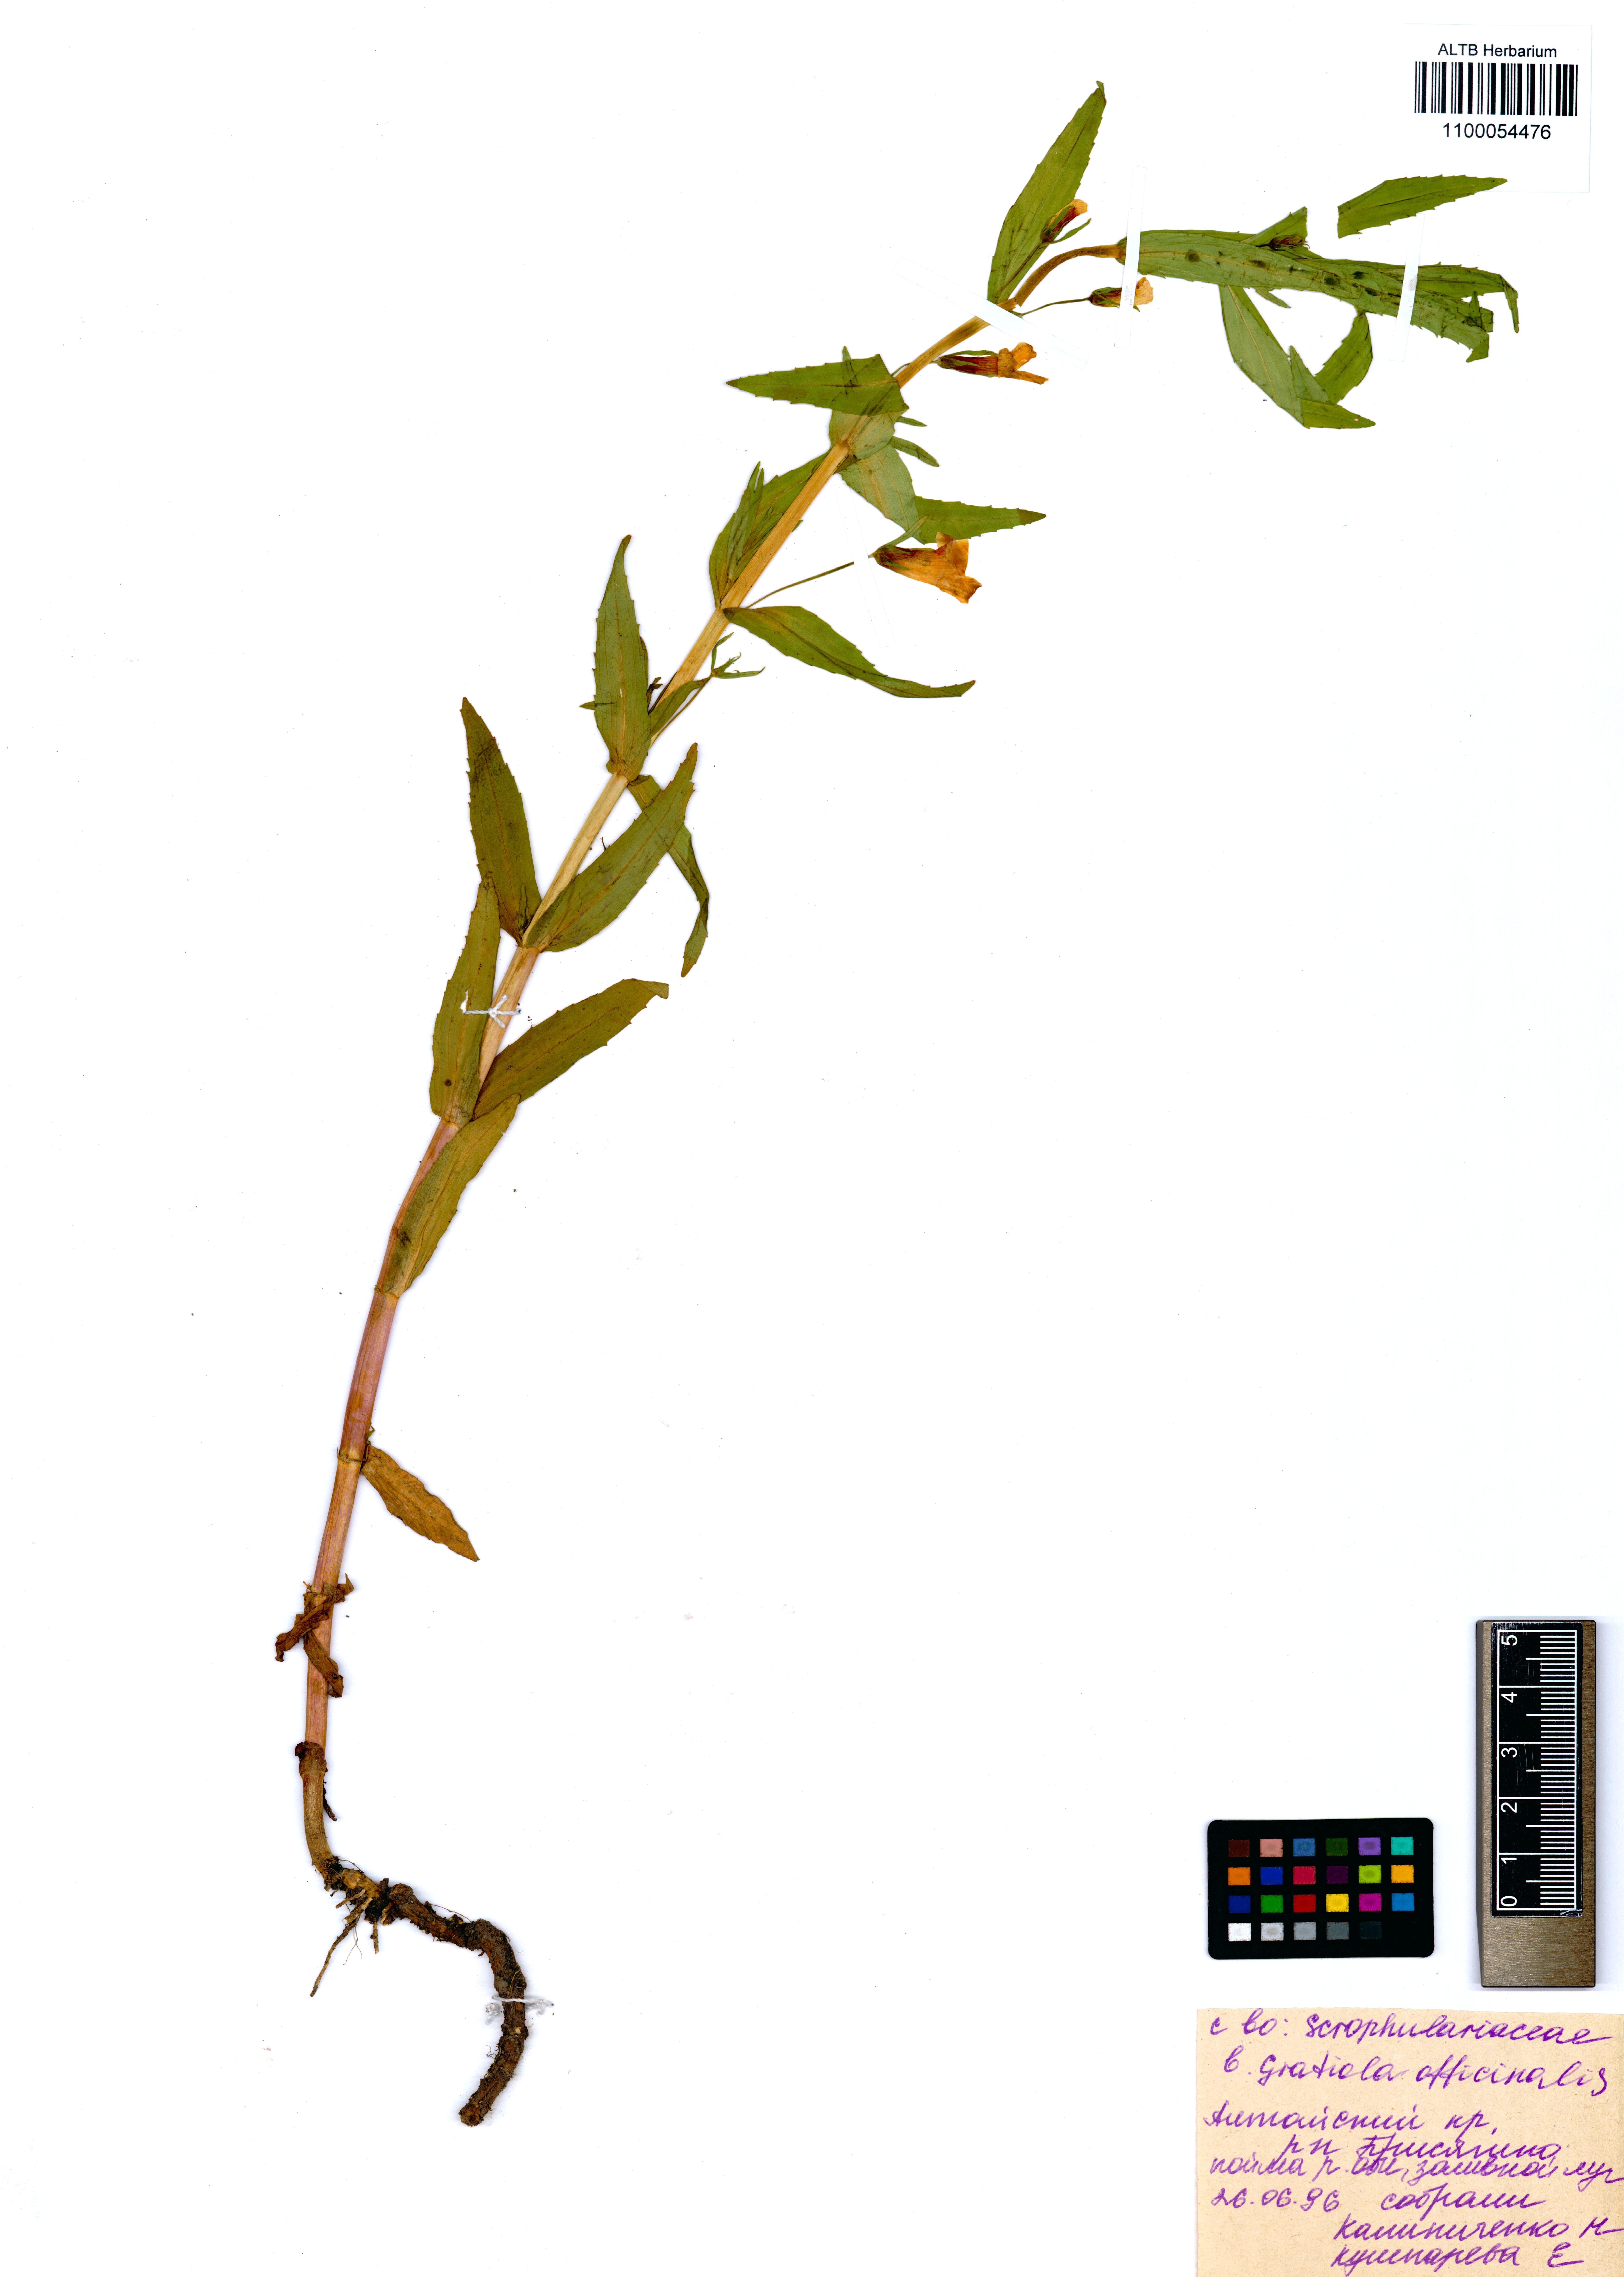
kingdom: Plantae
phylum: Tracheophyta
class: Magnoliopsida
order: Lamiales
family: Plantaginaceae
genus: Gratiola
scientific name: Gratiola officinalis
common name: Gratiola
